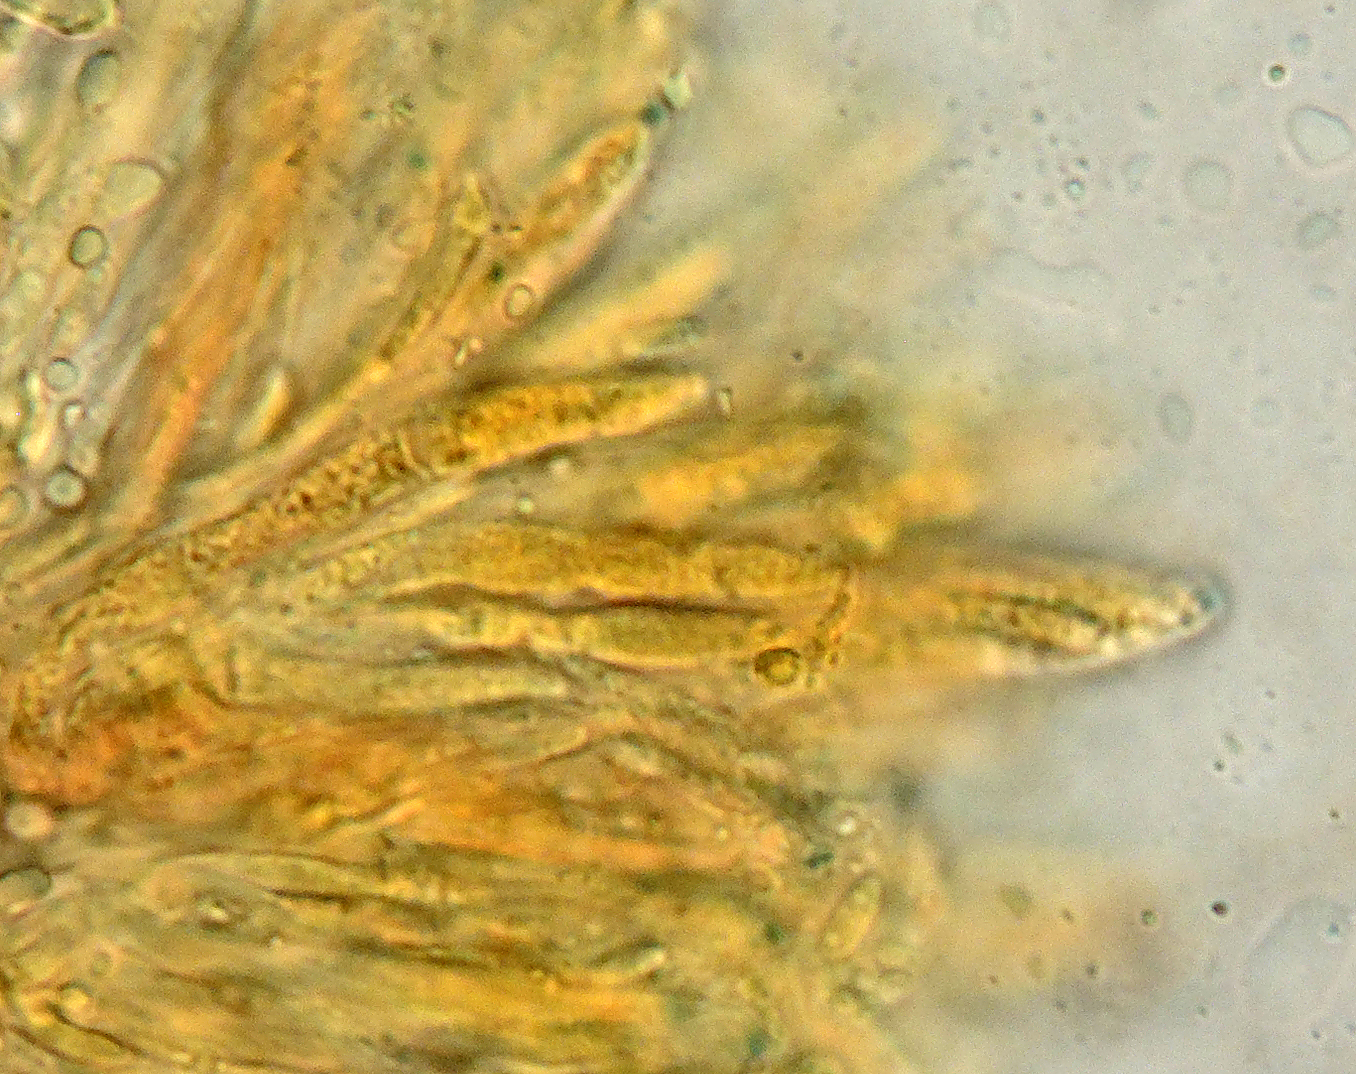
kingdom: Fungi
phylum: Ascomycota
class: Leotiomycetes
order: Helotiales
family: Ploettnerulaceae
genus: Pyrenopeziza
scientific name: Pyrenopeziza
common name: kerneskive
